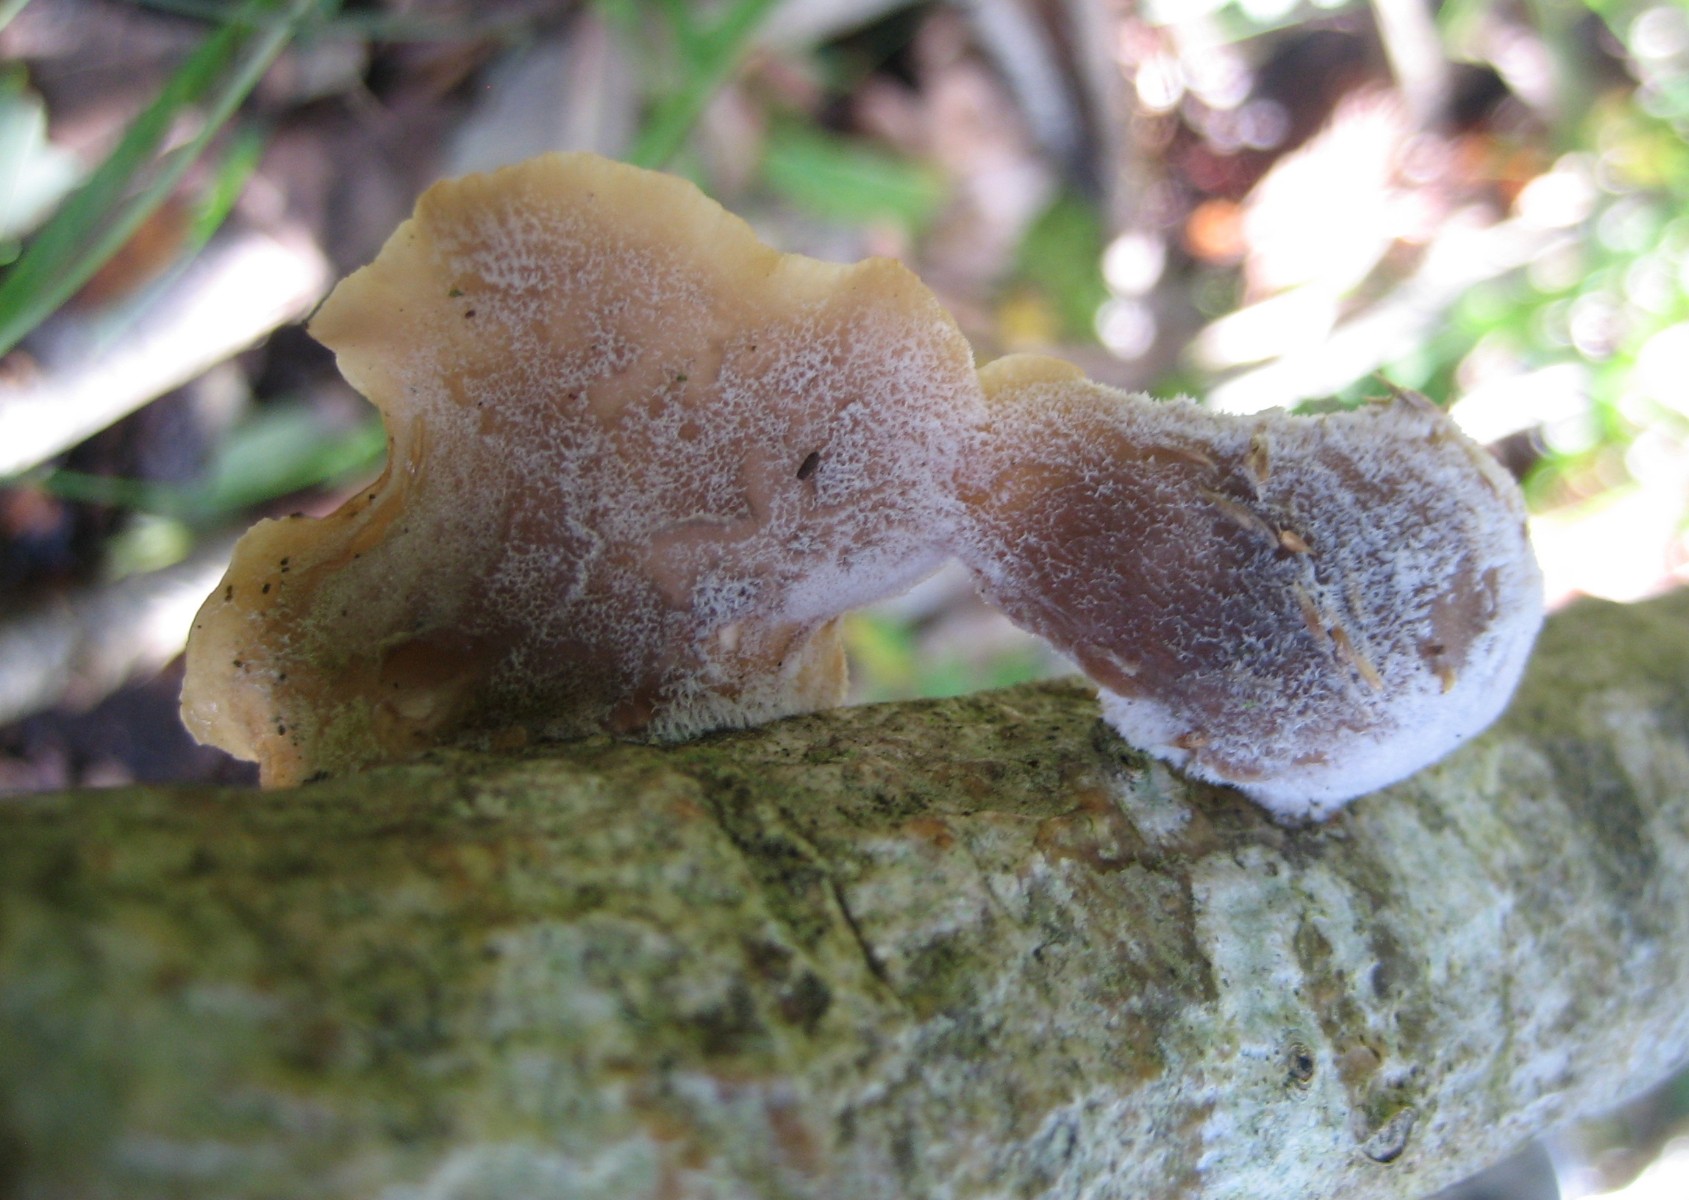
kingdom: Fungi
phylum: Basidiomycota
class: Agaricomycetes
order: Agaricales
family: Pleurotaceae
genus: Hohenbuehelia
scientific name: Hohenbuehelia mastrucata
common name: skællet filthat
